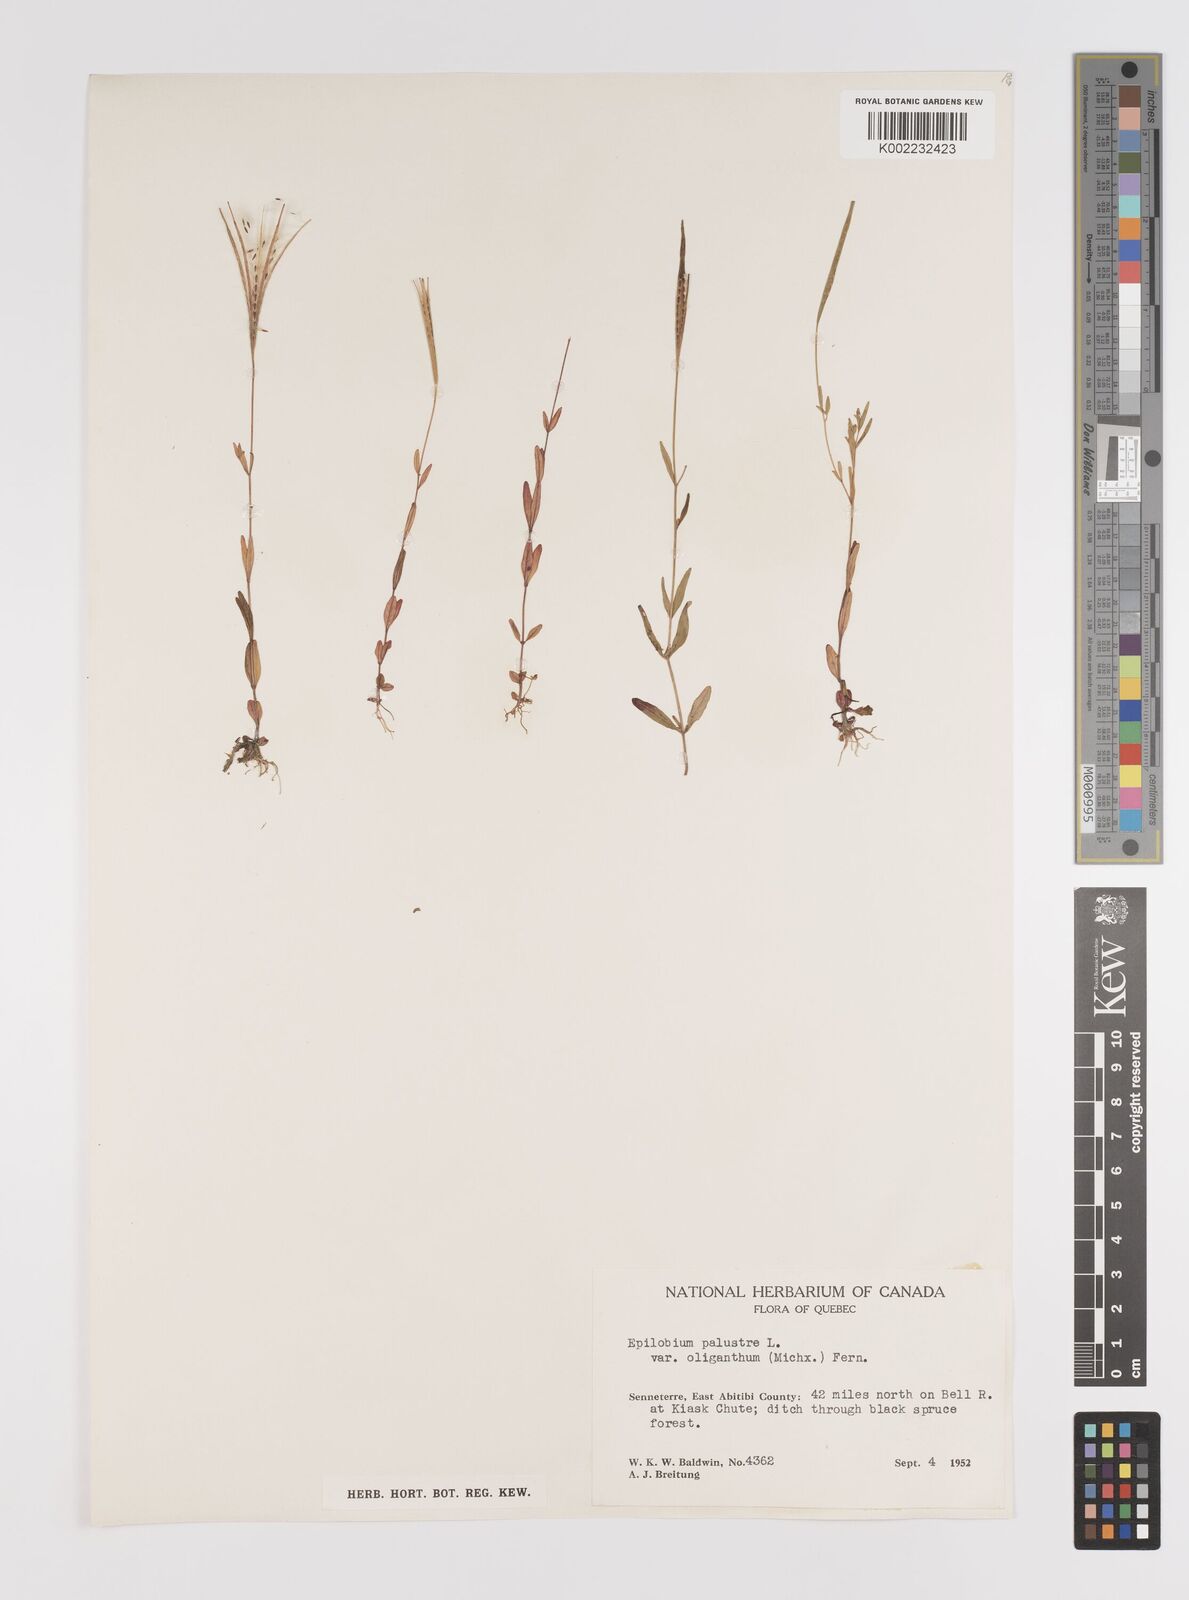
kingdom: Plantae
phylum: Tracheophyta
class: Magnoliopsida
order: Myrtales
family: Onagraceae
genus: Epilobium
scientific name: Epilobium palustre
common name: Marsh willowherb
